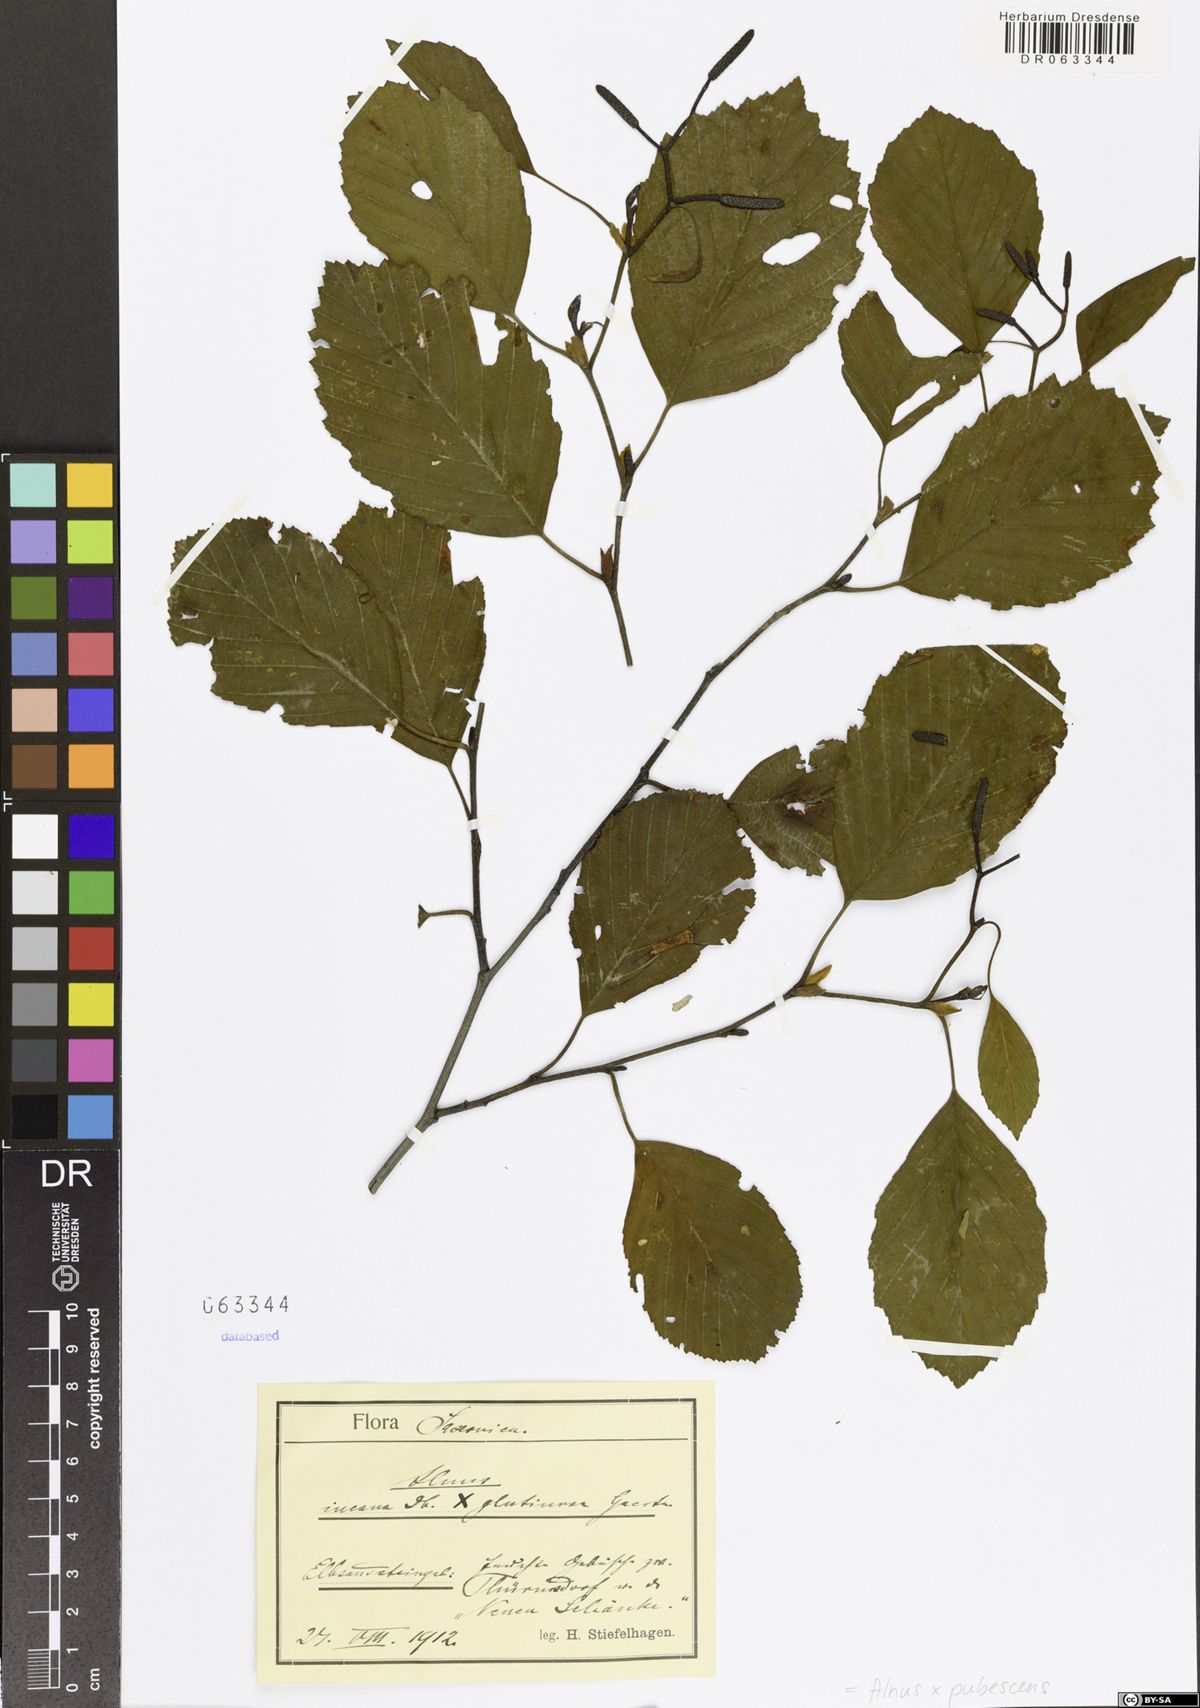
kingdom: Plantae
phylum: Tracheophyta
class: Magnoliopsida
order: Fagales
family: Betulaceae
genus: Alnus
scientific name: Alnus pubescens
